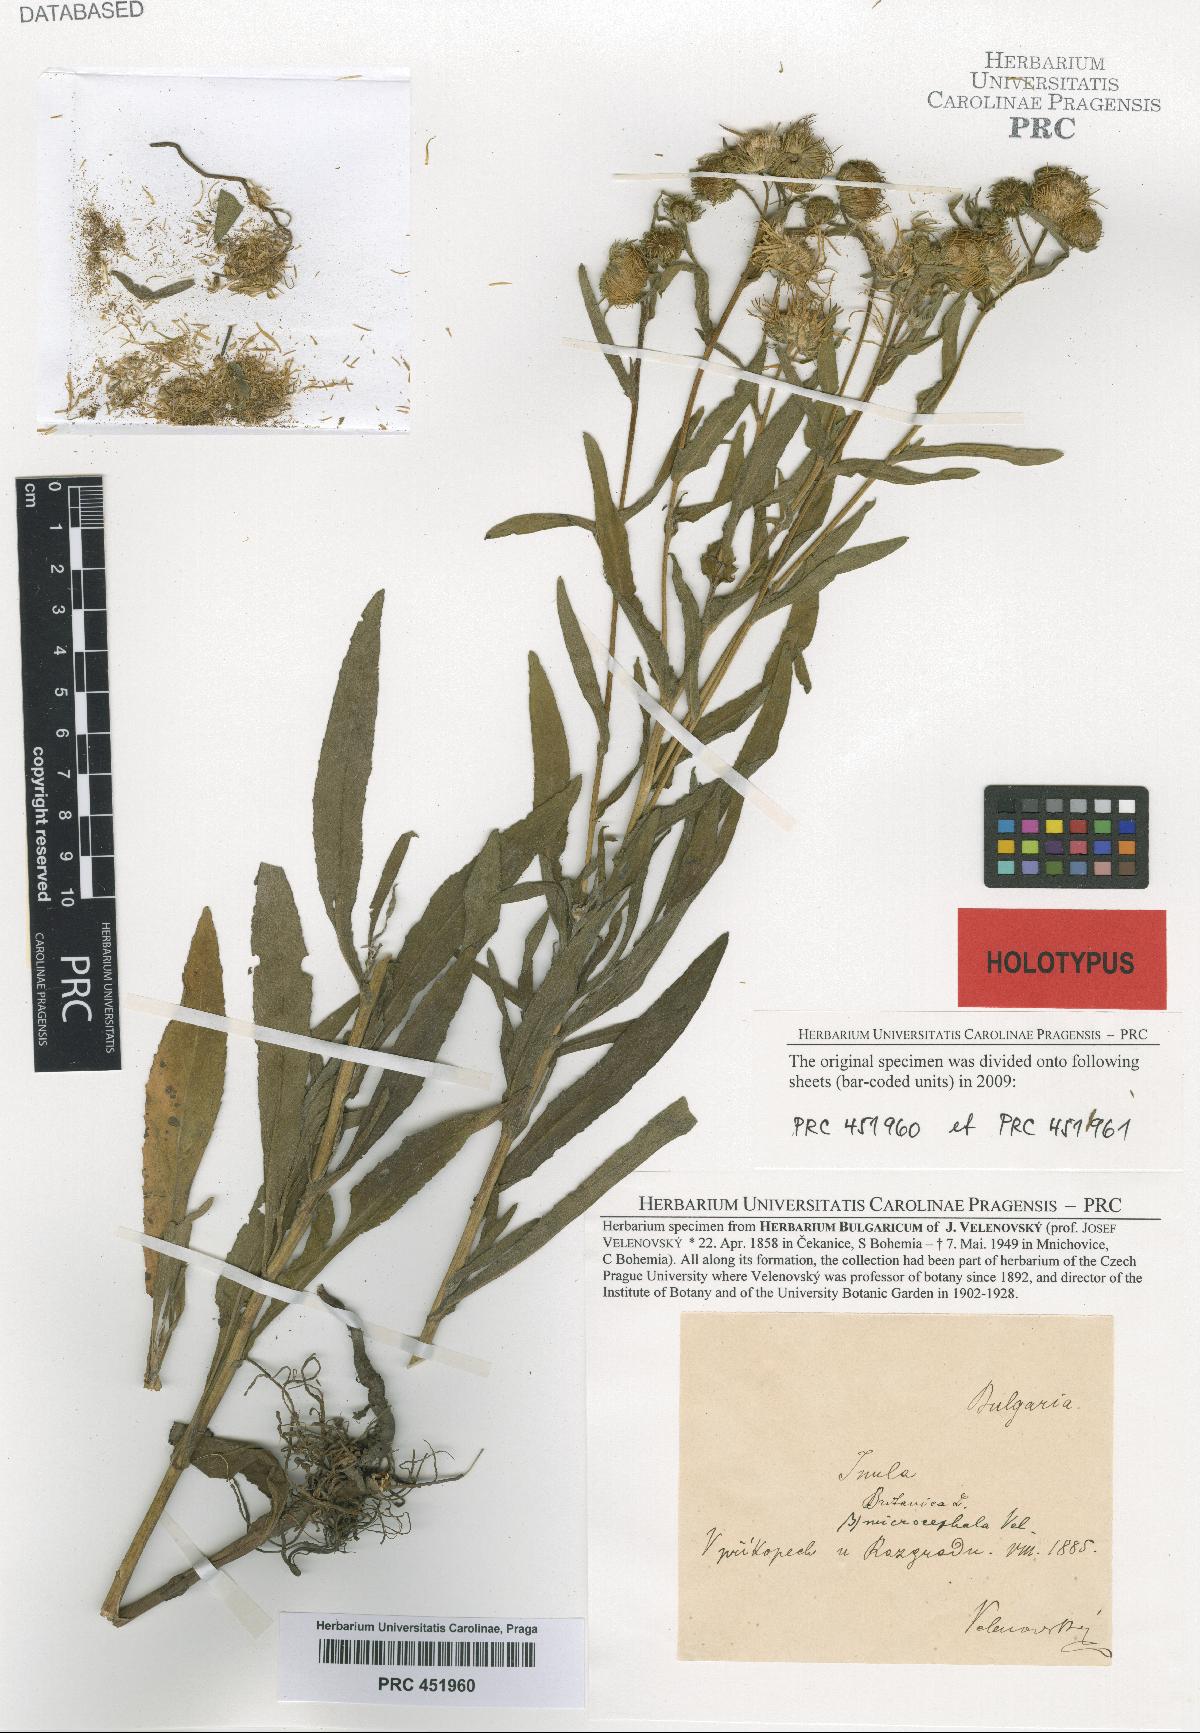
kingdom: Plantae
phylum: Tracheophyta
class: Magnoliopsida
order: Asterales
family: Asteraceae
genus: Pentanema
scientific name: Pentanema britannicum
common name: British elecampane
